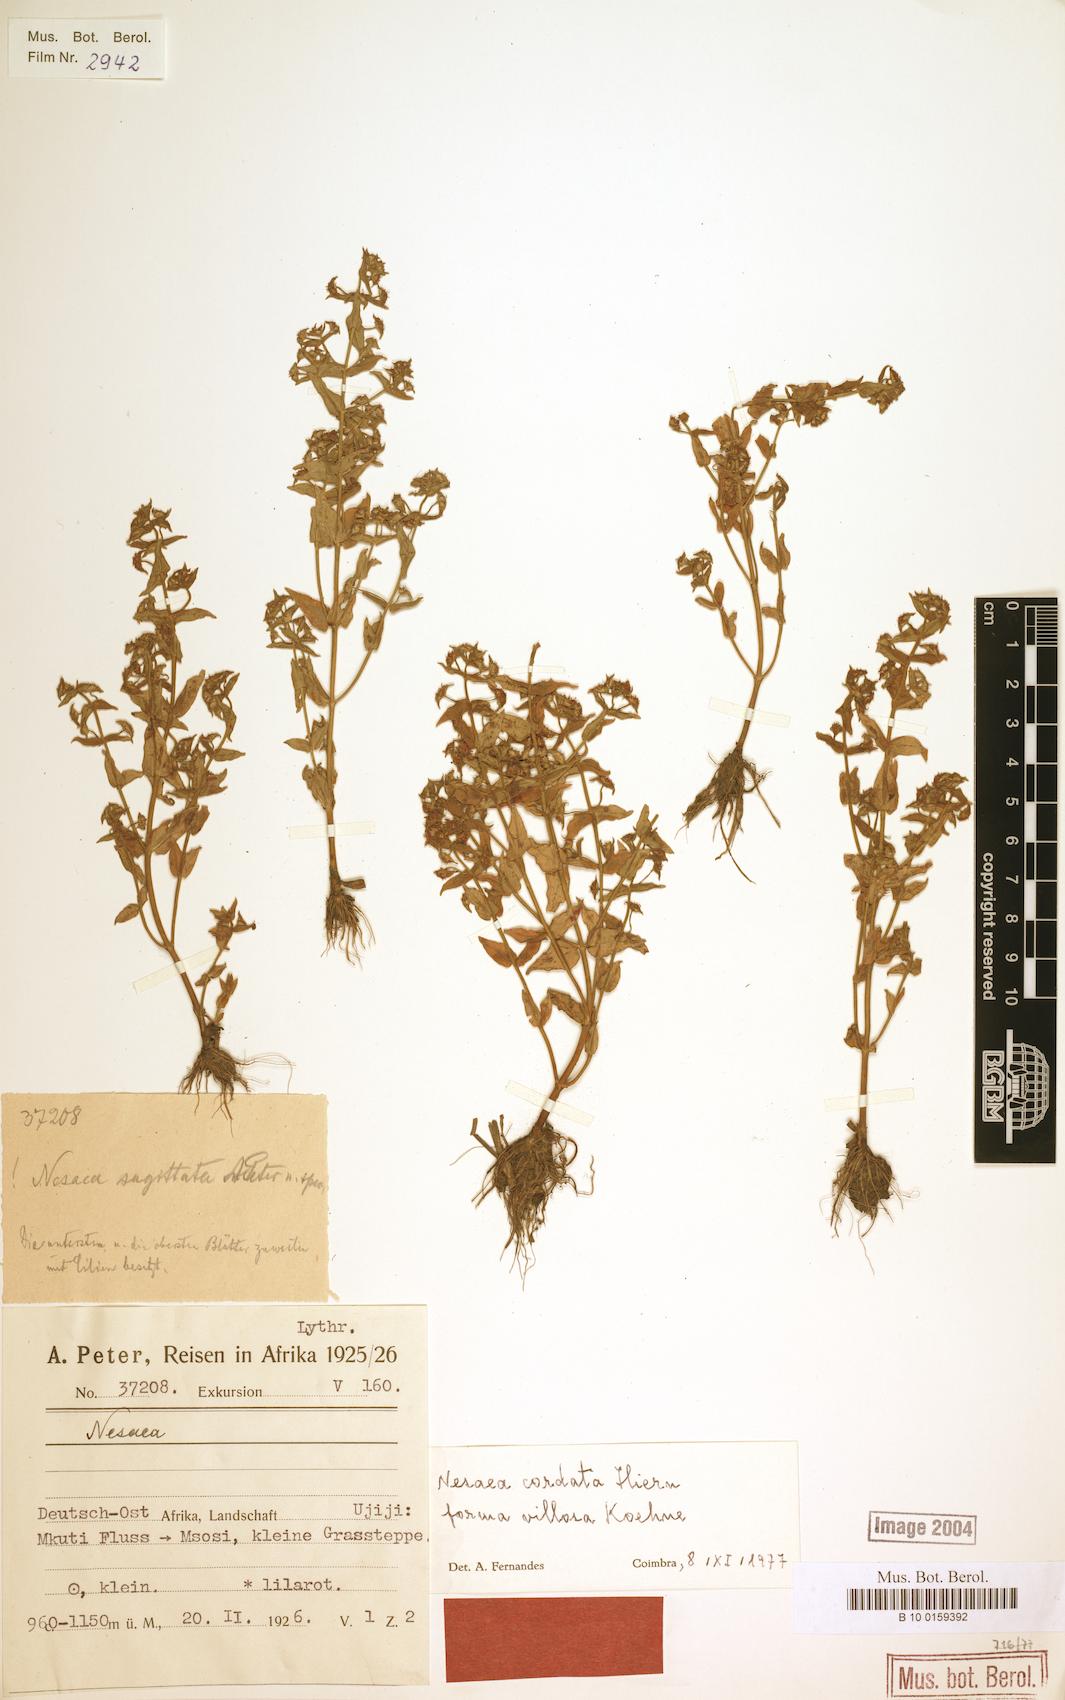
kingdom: Plantae
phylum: Tracheophyta
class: Magnoliopsida
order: Myrtales
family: Lythraceae
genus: Ammannia
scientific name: Ammannia involucrata
